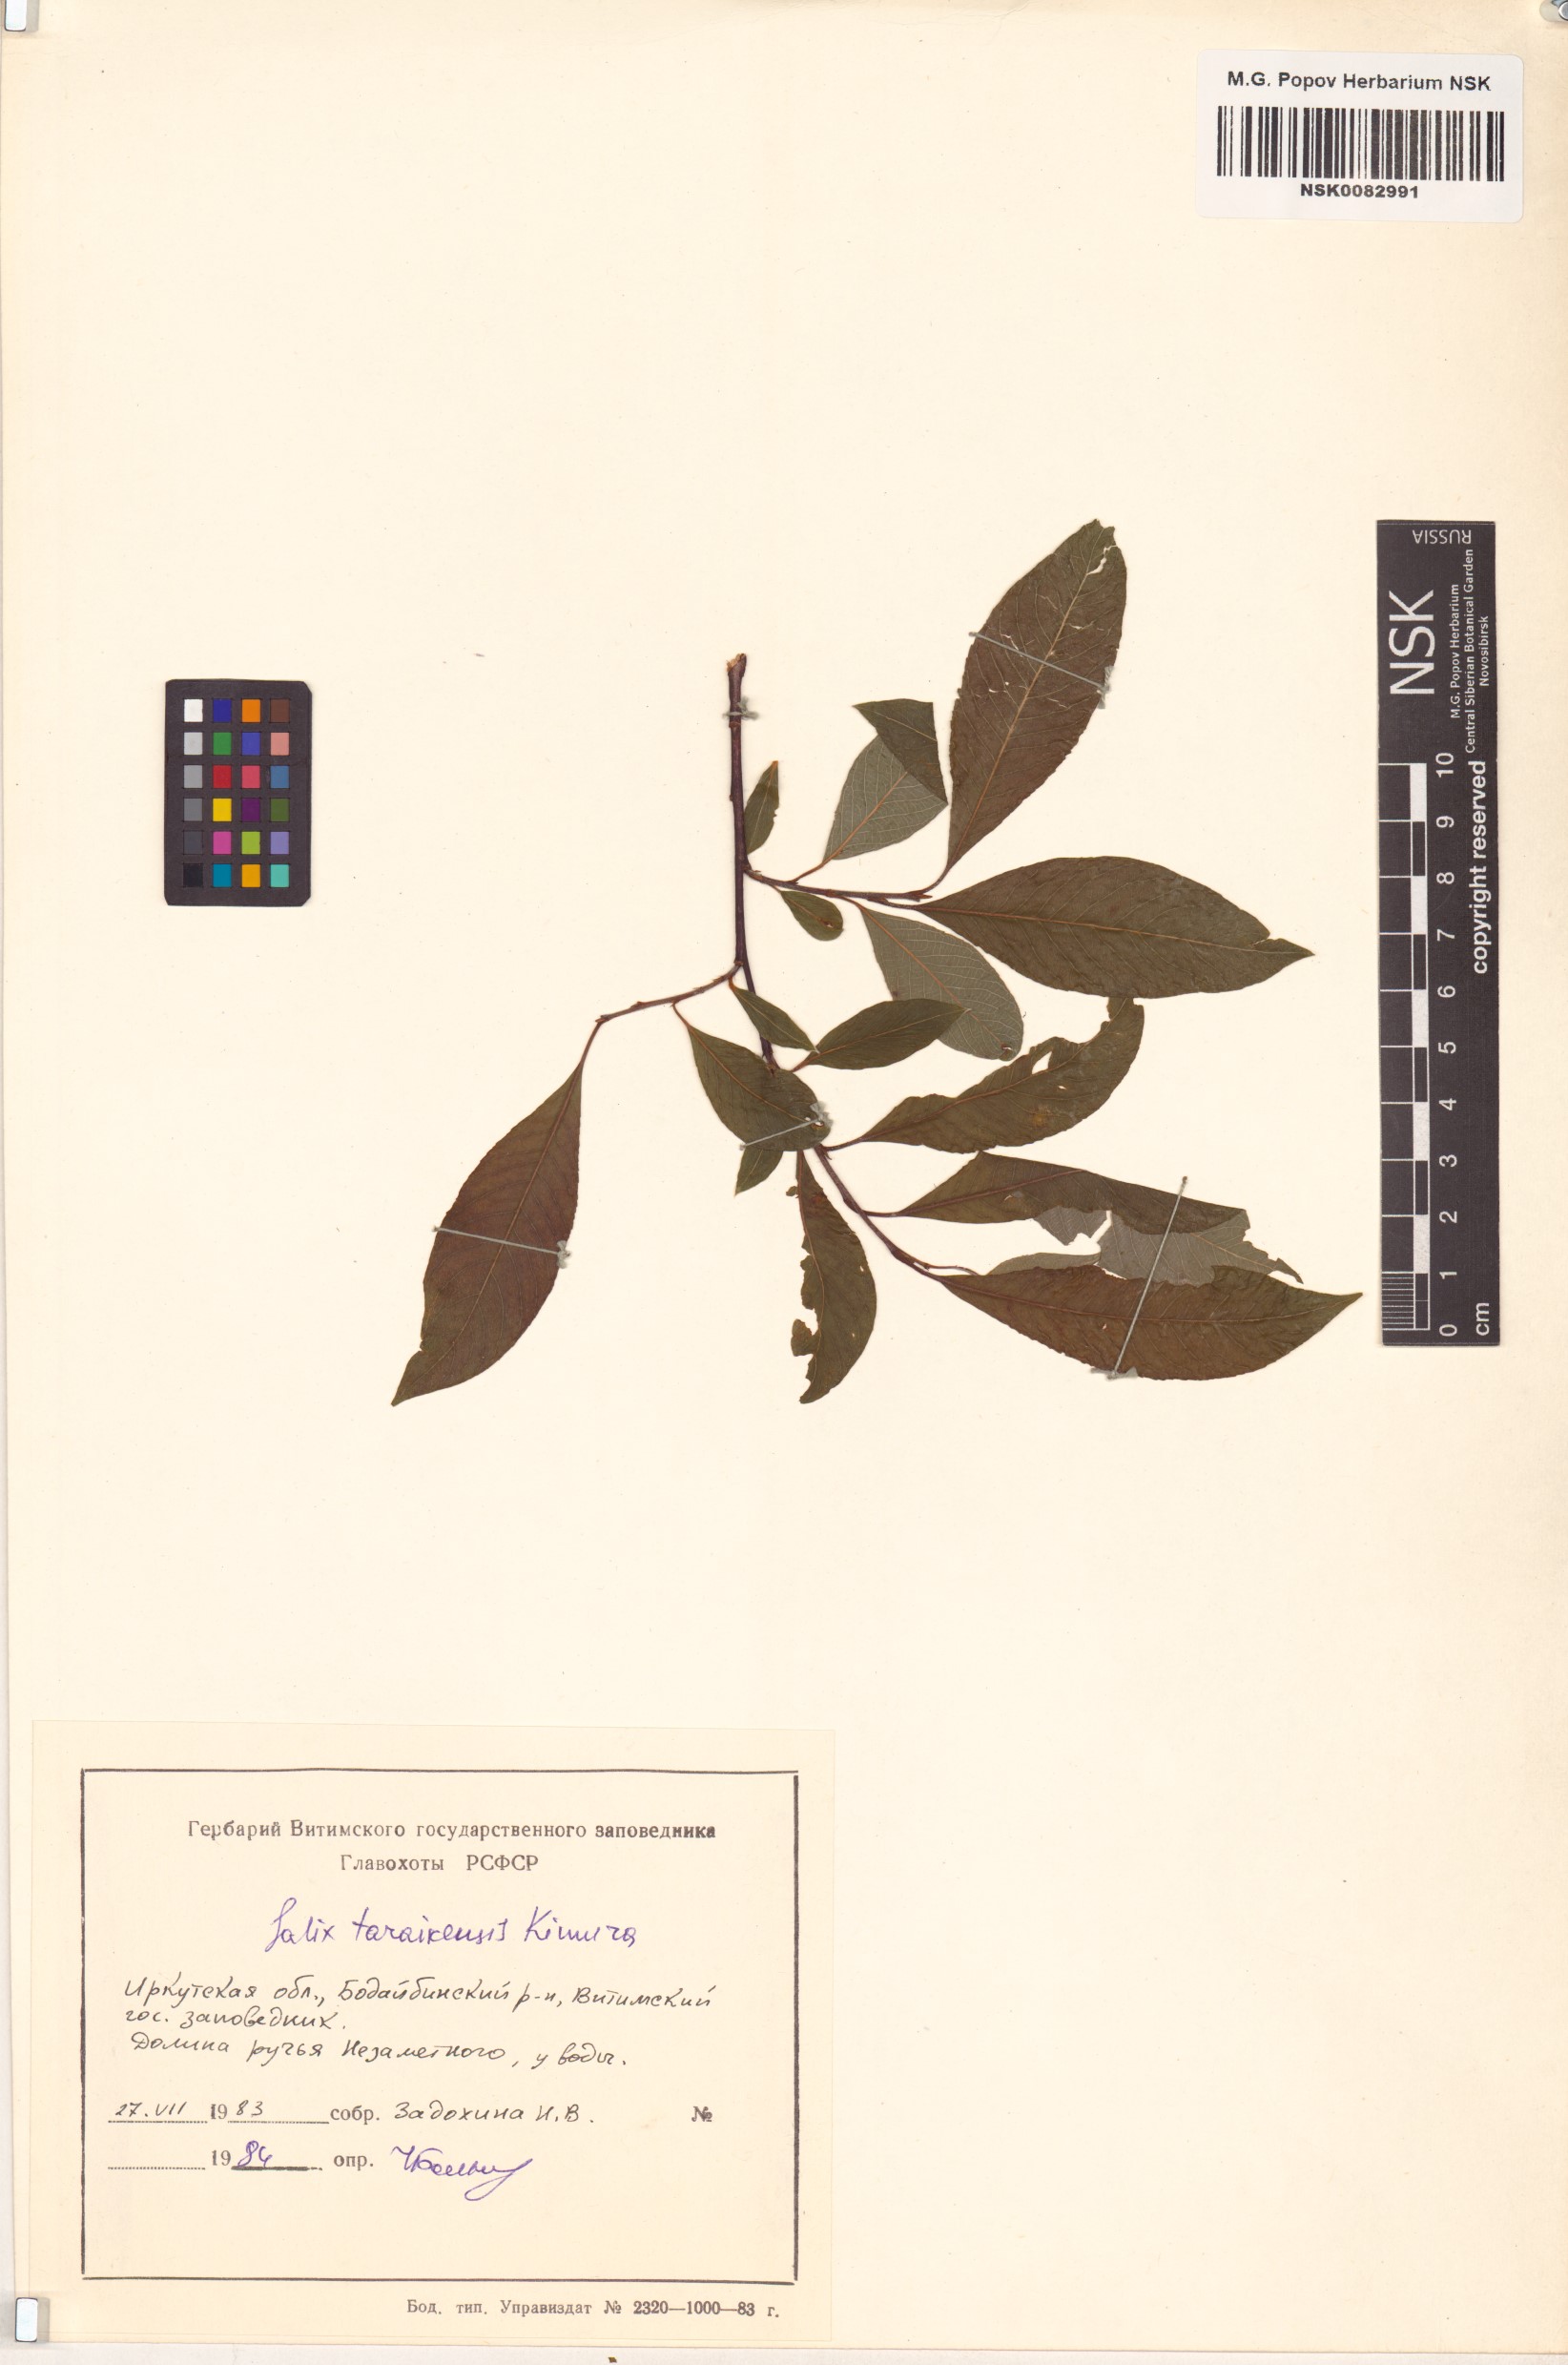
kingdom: Plantae
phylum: Tracheophyta
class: Magnoliopsida
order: Malpighiales
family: Salicaceae
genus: Salix
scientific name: Salix taraikensis
